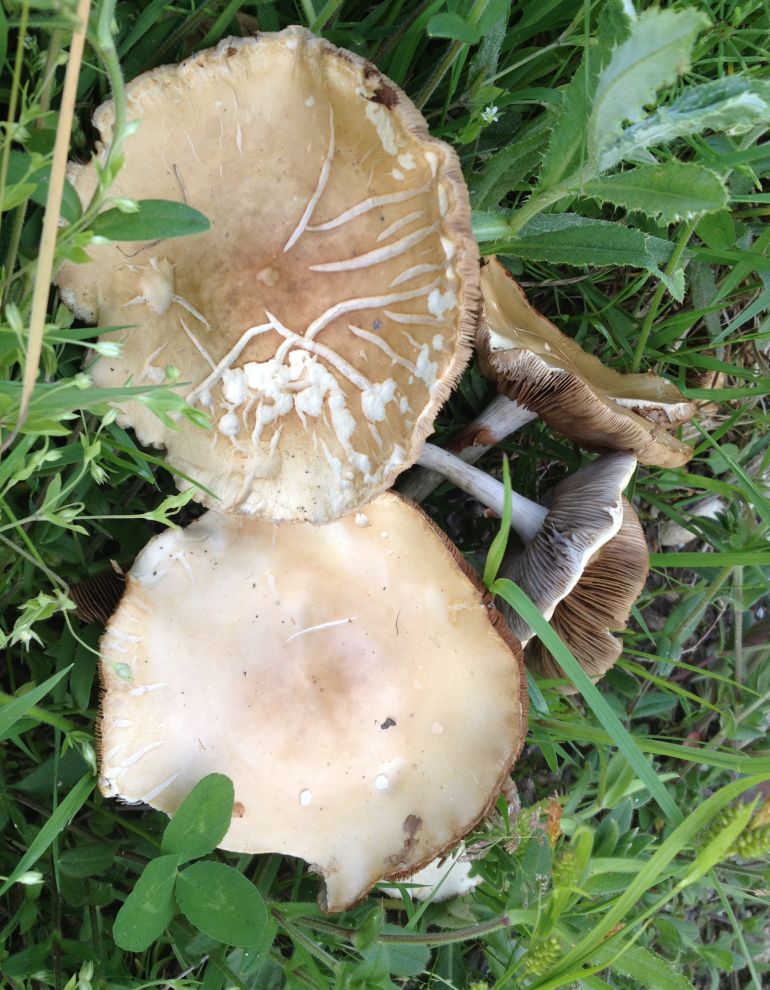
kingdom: Fungi
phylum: Basidiomycota
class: Agaricomycetes
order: Agaricales
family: Strophariaceae
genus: Agrocybe
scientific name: Agrocybe praecox
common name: tidlig agerhat
